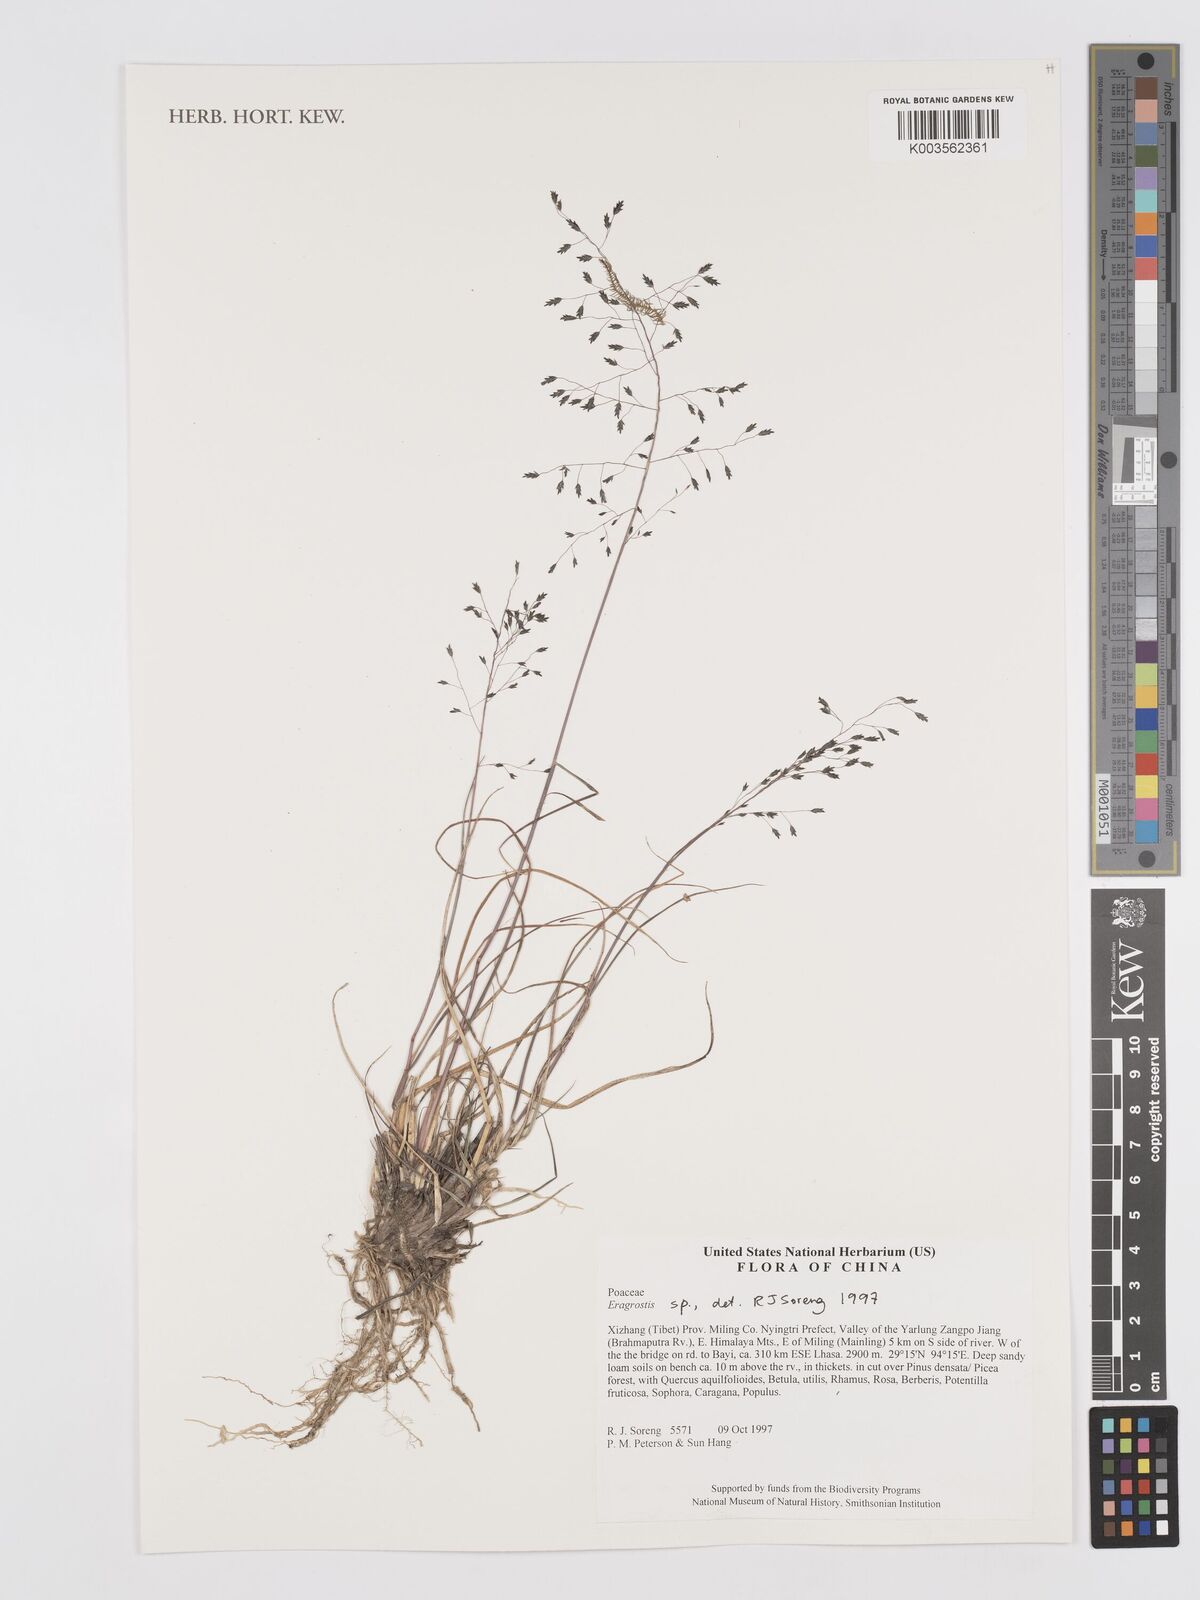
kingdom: Plantae
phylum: Tracheophyta
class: Liliopsida
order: Poales
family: Poaceae
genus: Eragrostis
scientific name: Eragrostis
